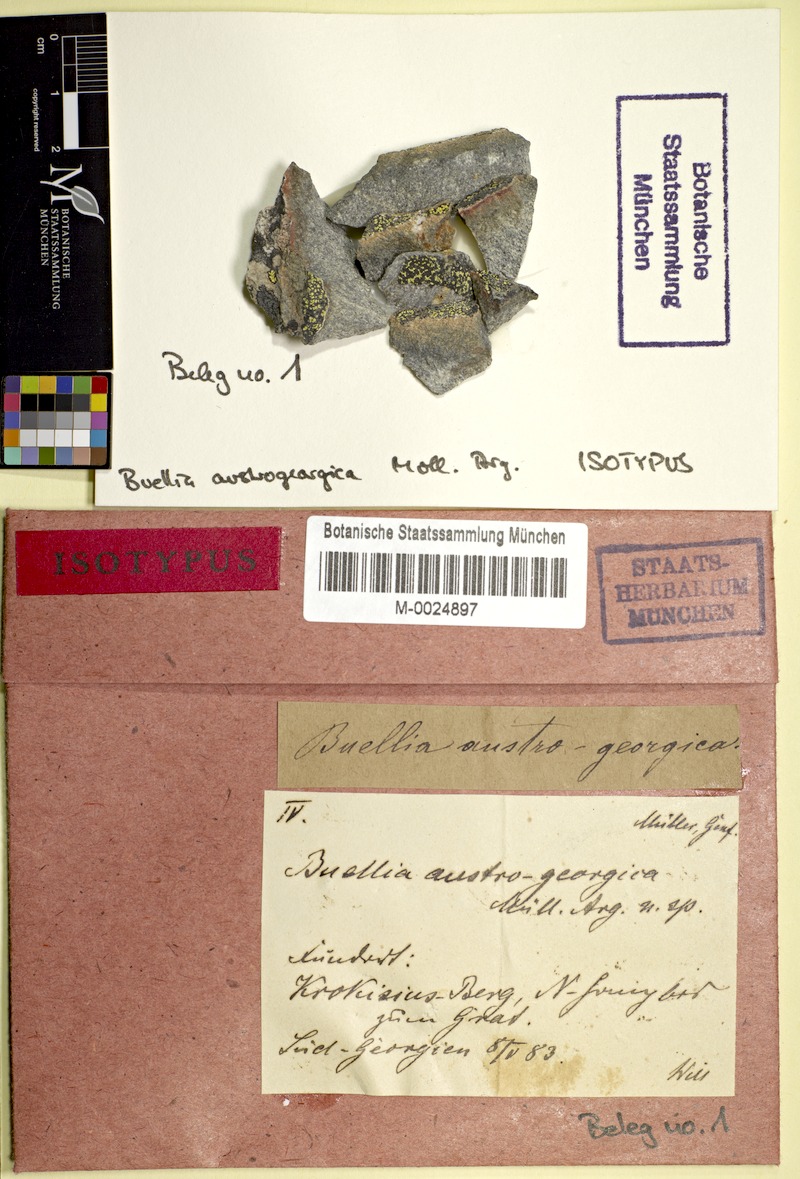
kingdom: Fungi
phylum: Ascomycota
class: Lecanoromycetes
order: Rhizocarpales
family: Rhizocarpaceae
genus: Rhizocarpon
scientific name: Rhizocarpon superficiale
